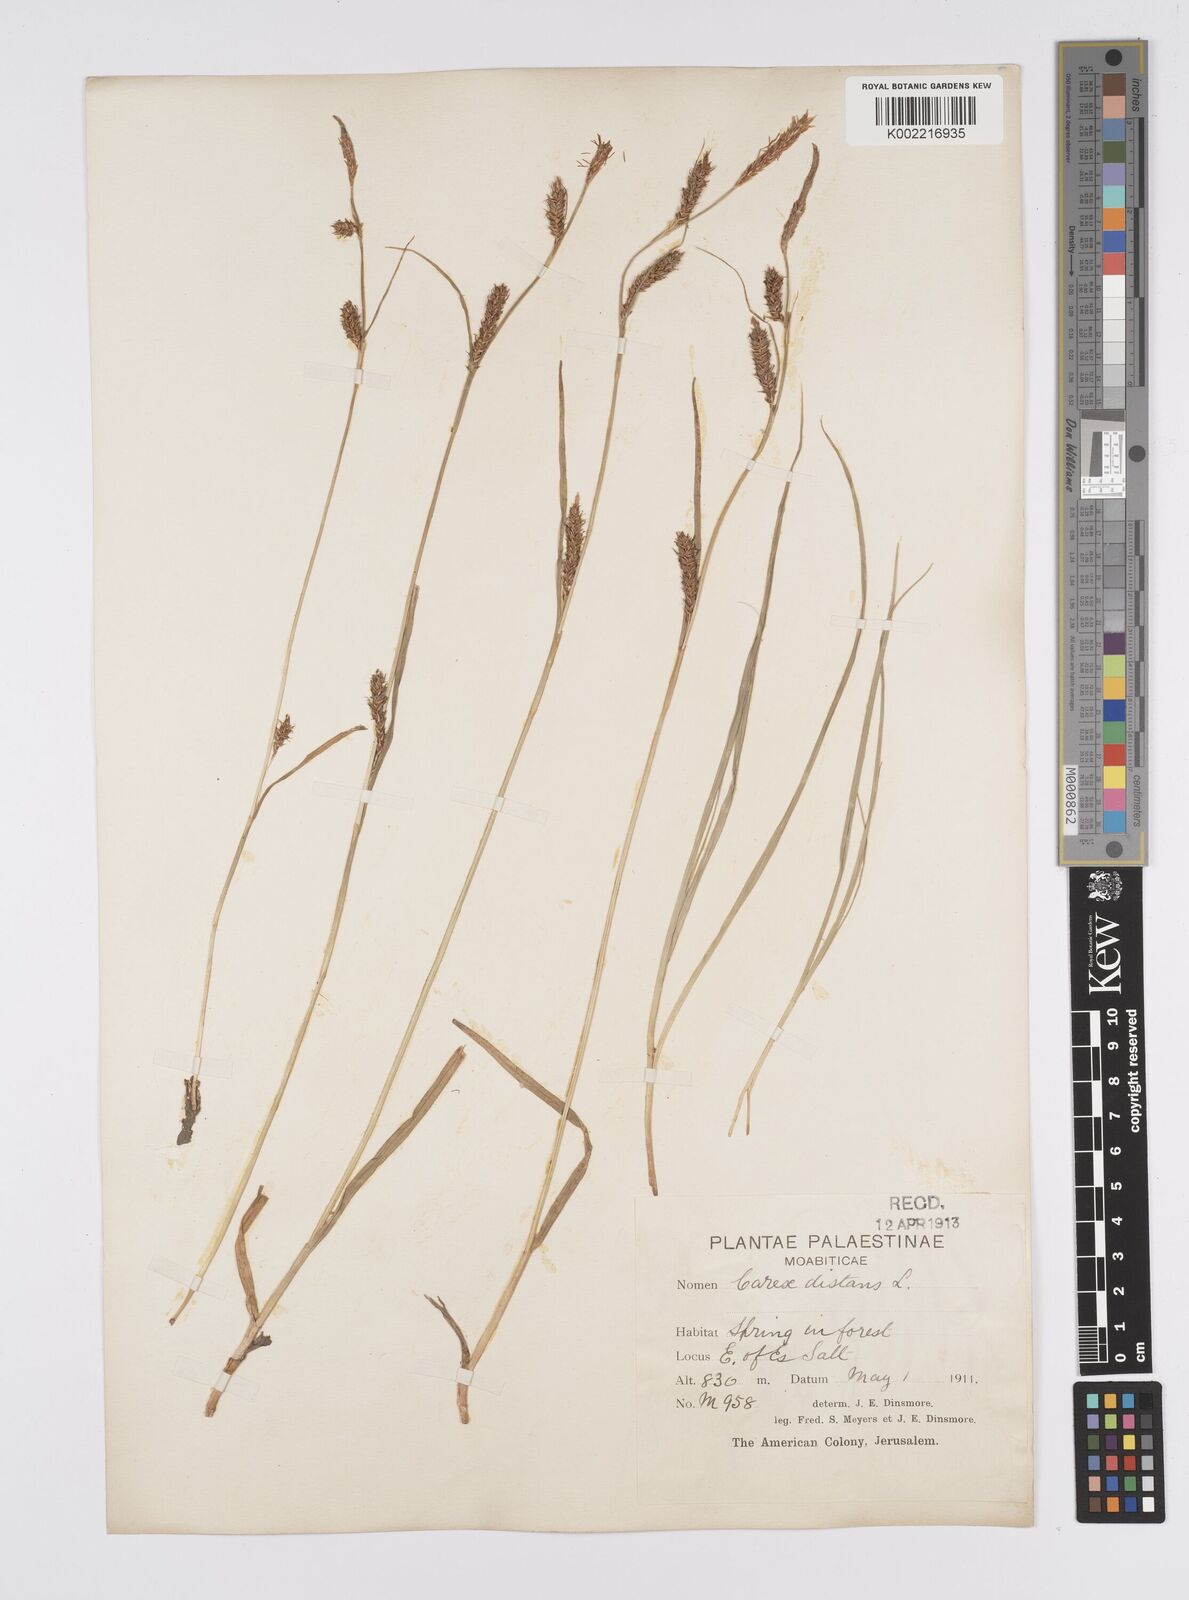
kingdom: Plantae
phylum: Tracheophyta
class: Liliopsida
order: Poales
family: Cyperaceae
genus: Carex
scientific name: Carex distans
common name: Distant sedge
